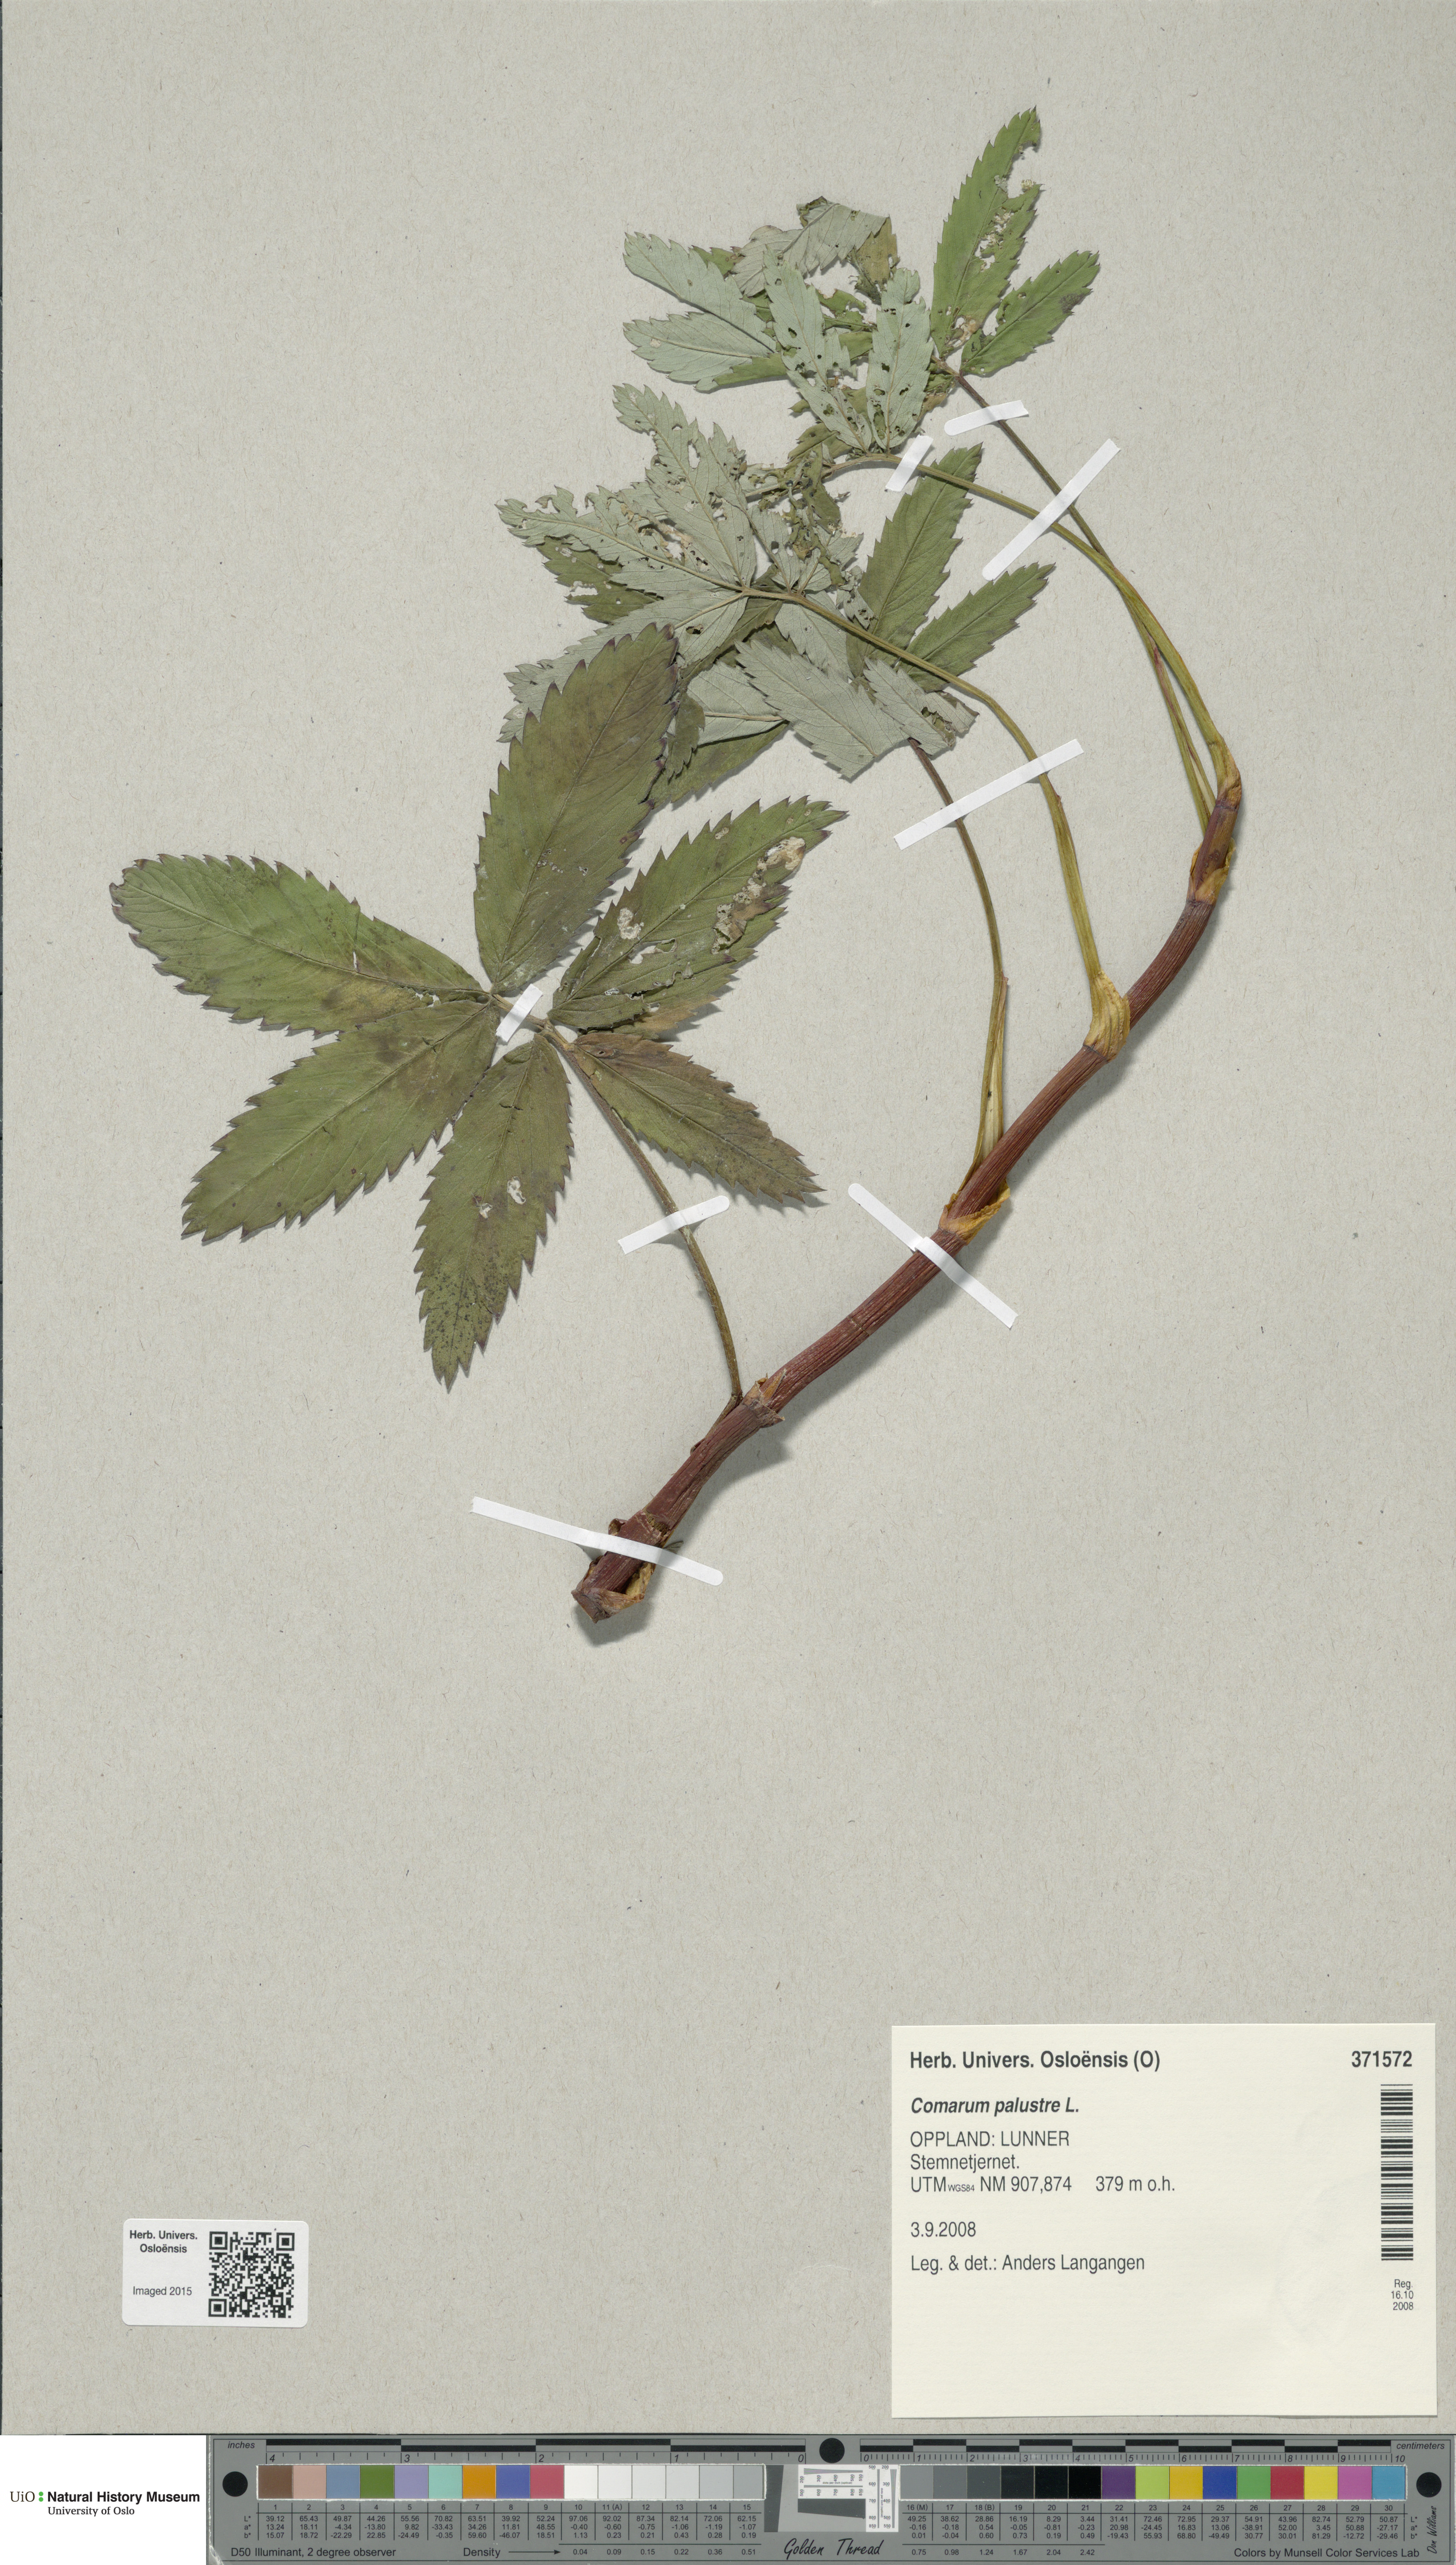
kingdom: Plantae
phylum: Tracheophyta
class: Magnoliopsida
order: Rosales
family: Rosaceae
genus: Comarum
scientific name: Comarum palustre
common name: Marsh cinquefoil
